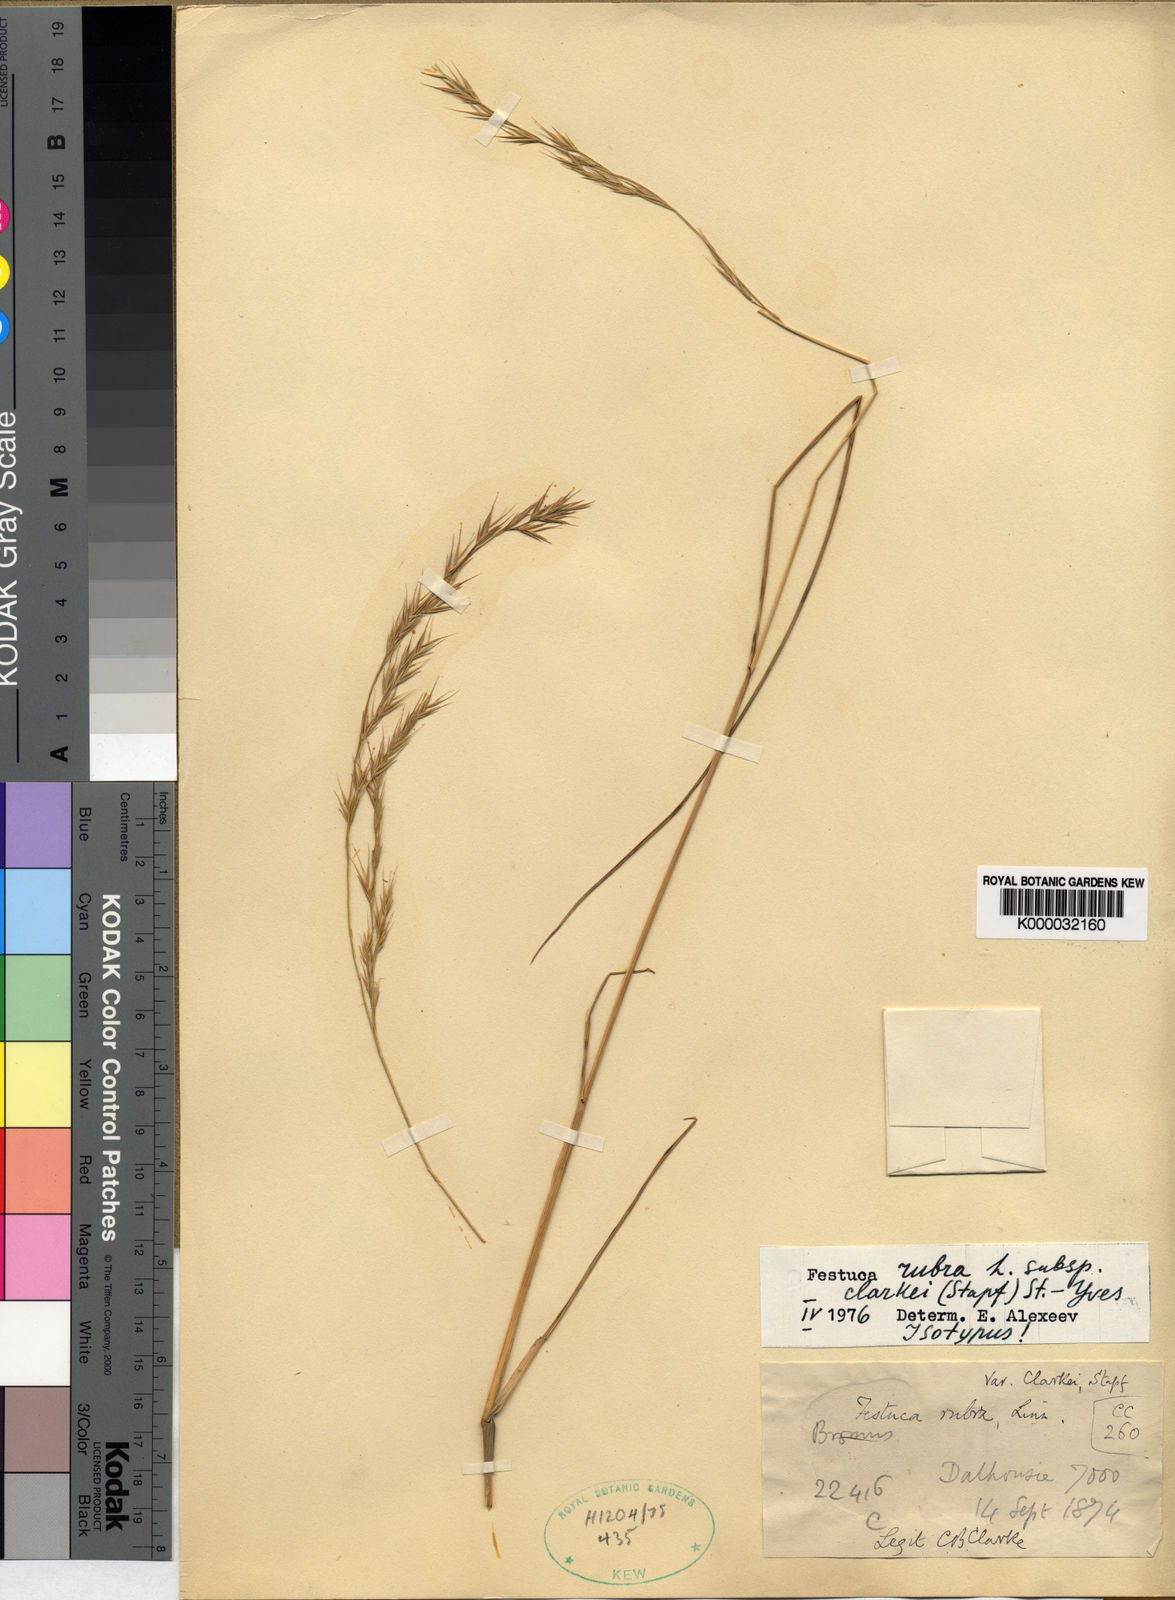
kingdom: Plantae
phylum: Tracheophyta
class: Liliopsida
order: Poales
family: Poaceae
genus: Festuca
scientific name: Festuca rubra
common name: Red fescue
